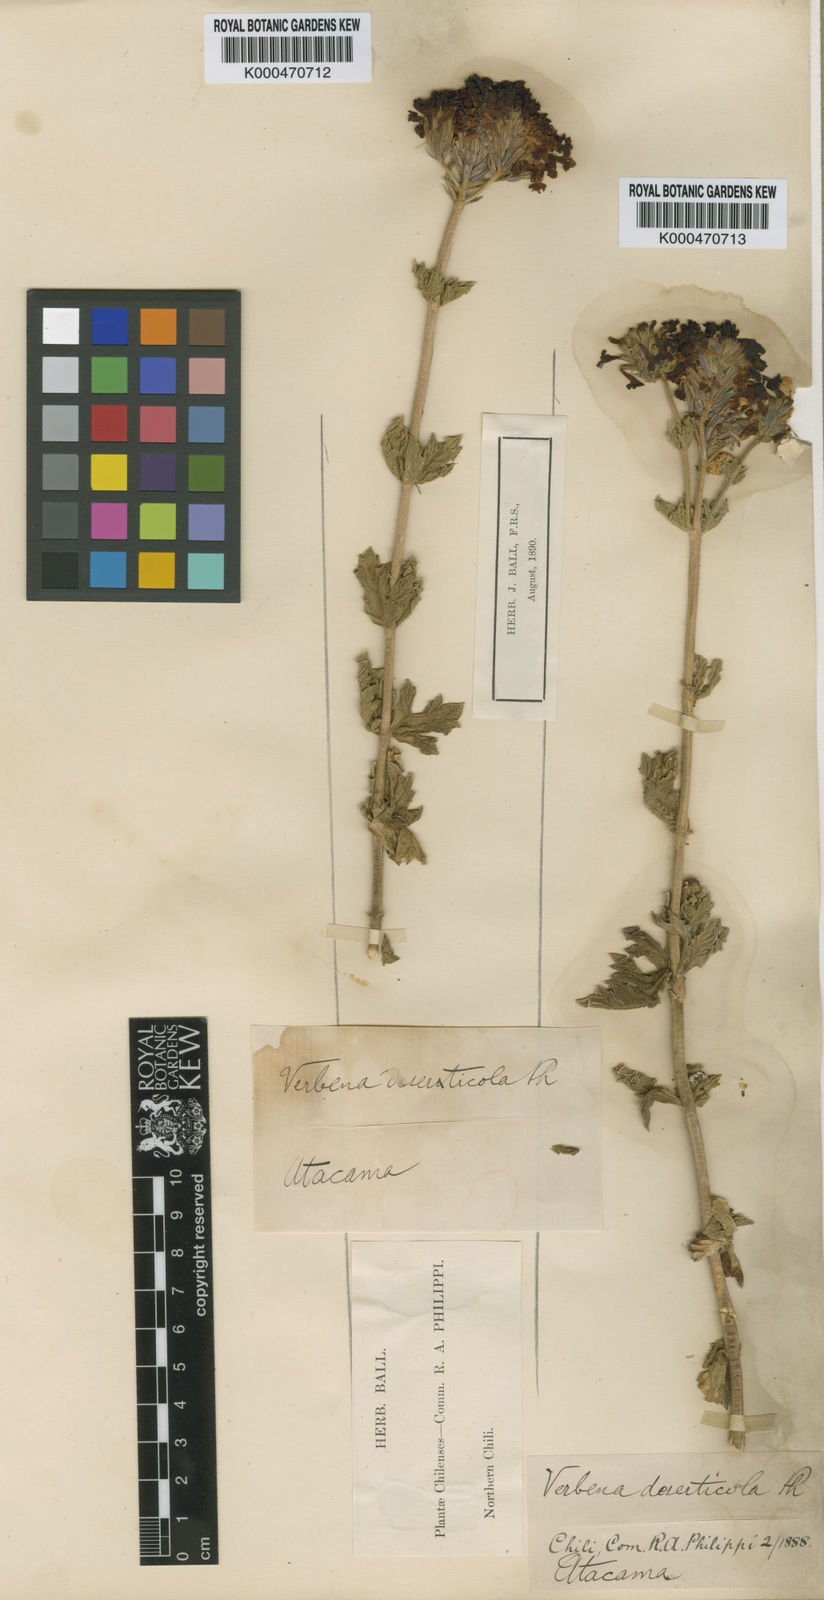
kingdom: Plantae
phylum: Tracheophyta
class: Magnoliopsida
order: Lamiales
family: Verbenaceae
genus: Junellia
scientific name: Junellia origenes
